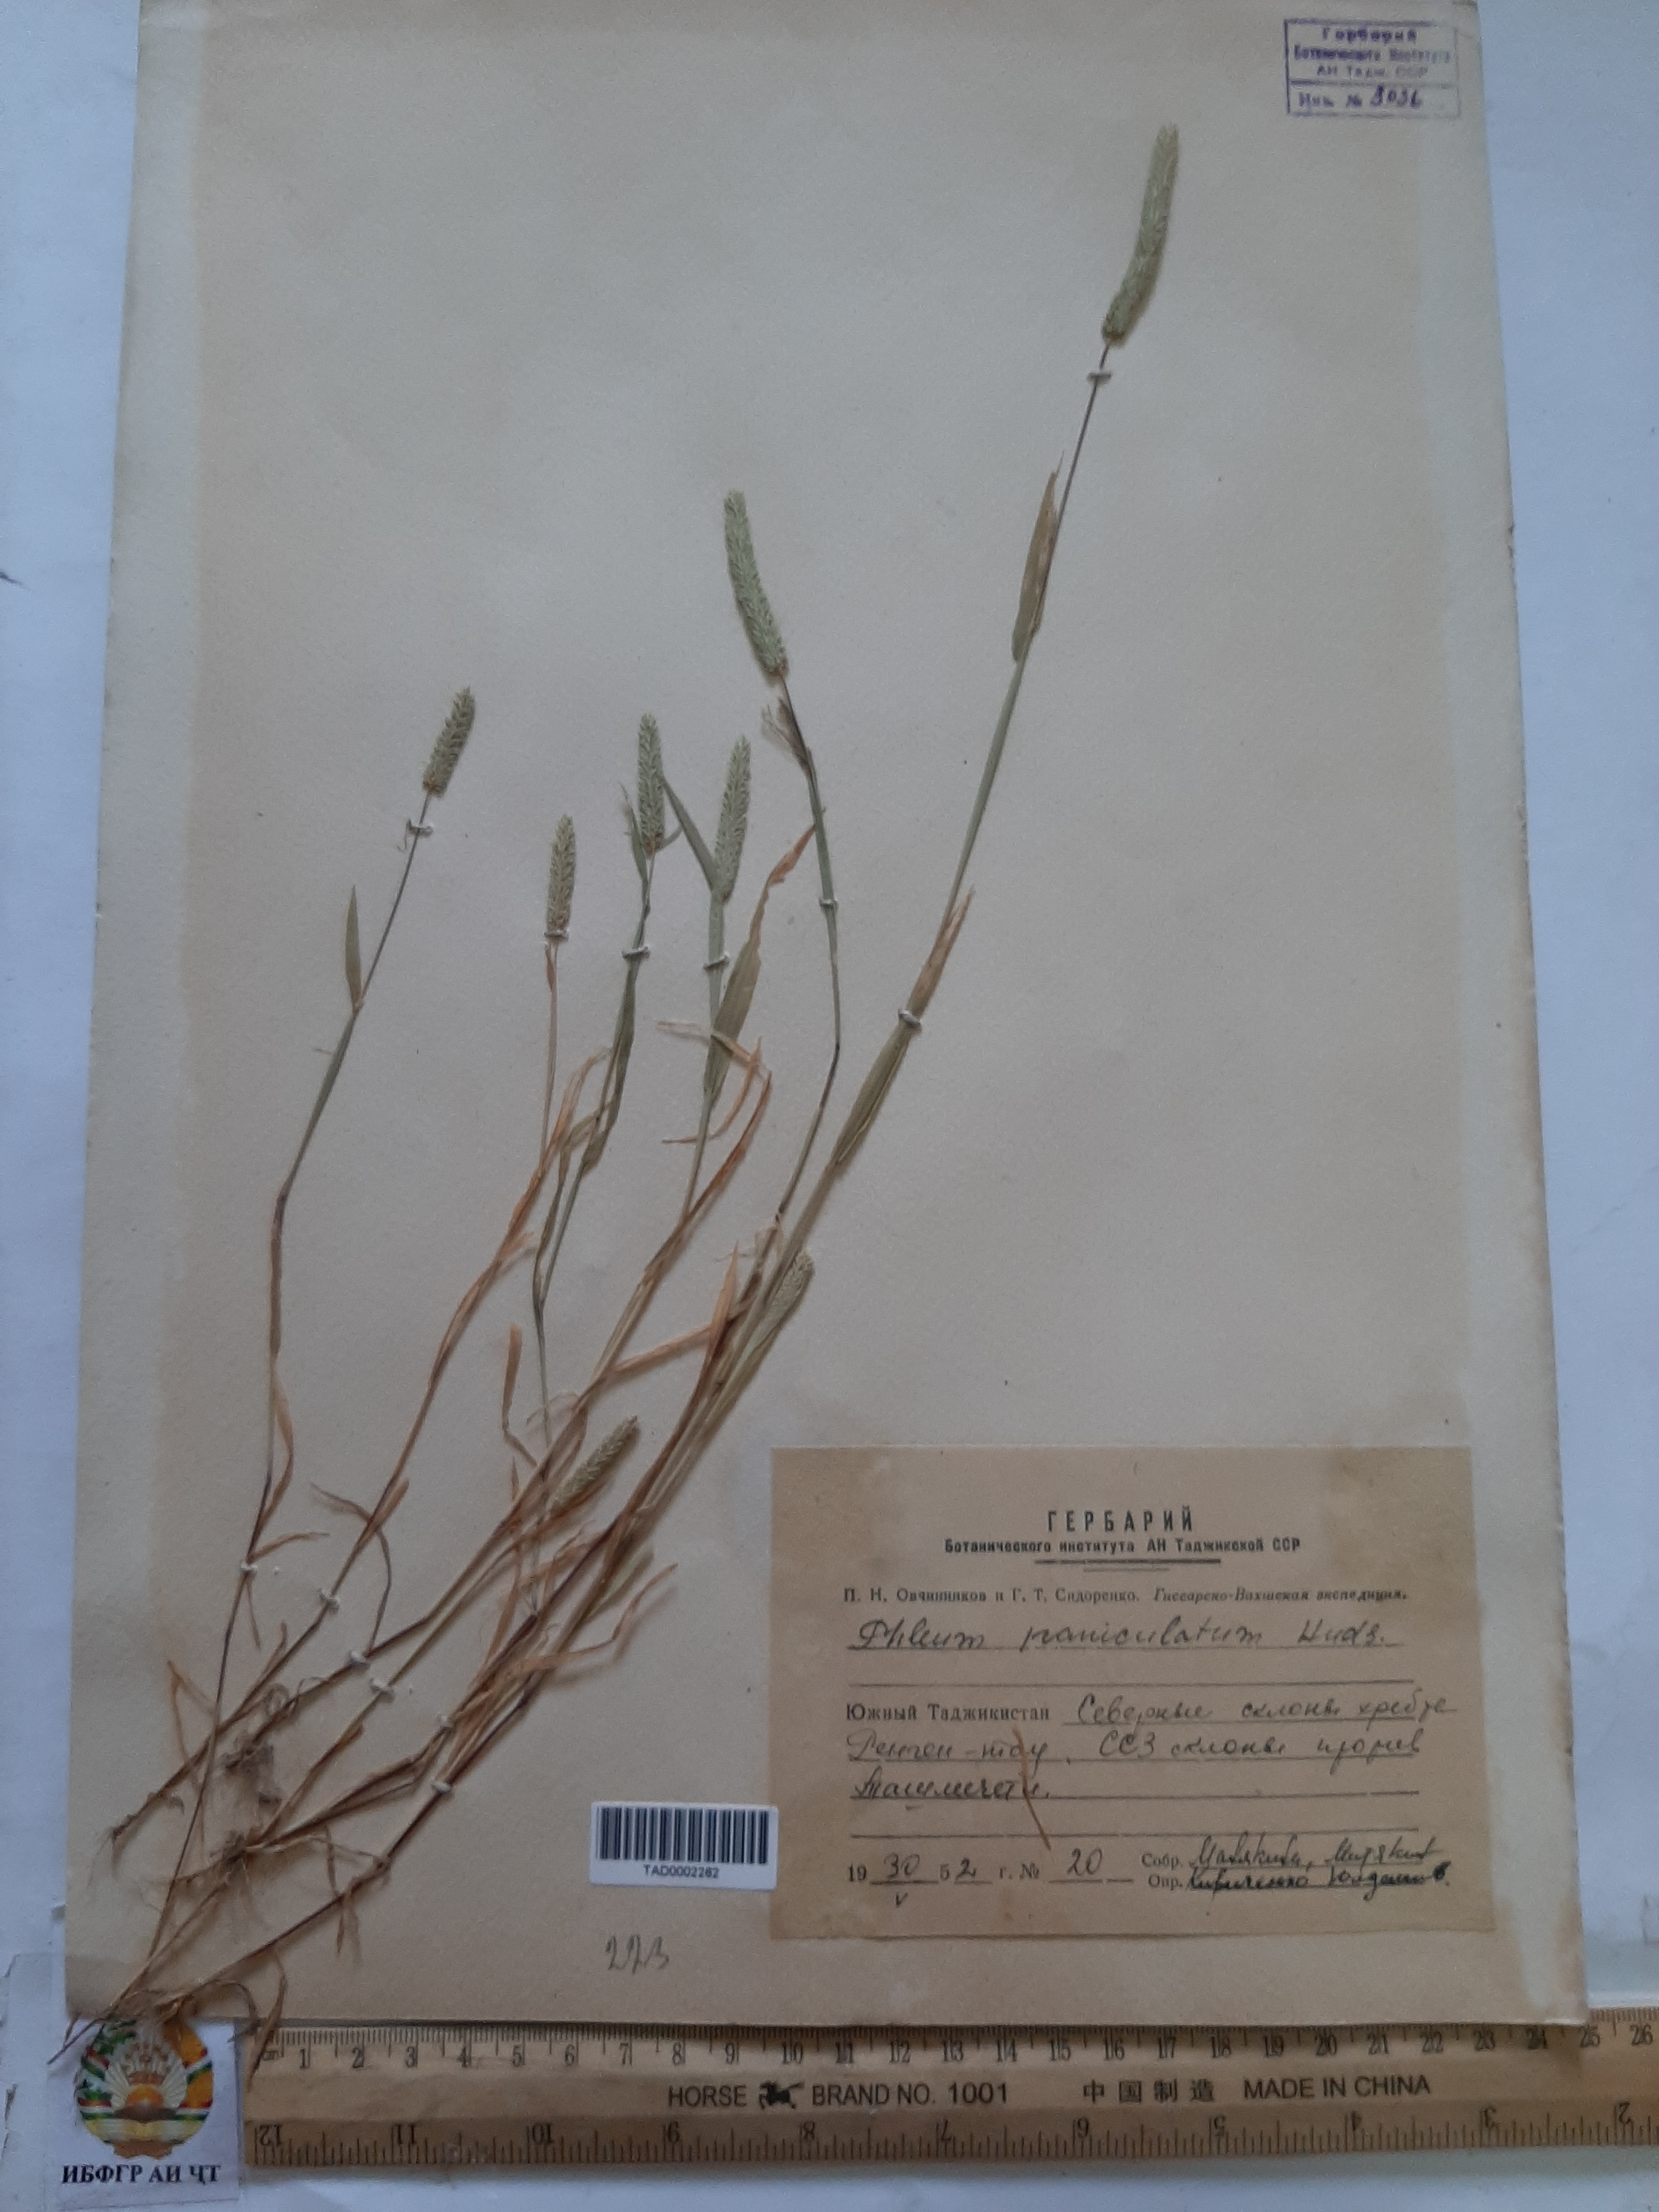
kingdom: Plantae
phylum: Tracheophyta
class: Liliopsida
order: Poales
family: Poaceae
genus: Phleum
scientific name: Phleum paniculatum
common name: British timothy
